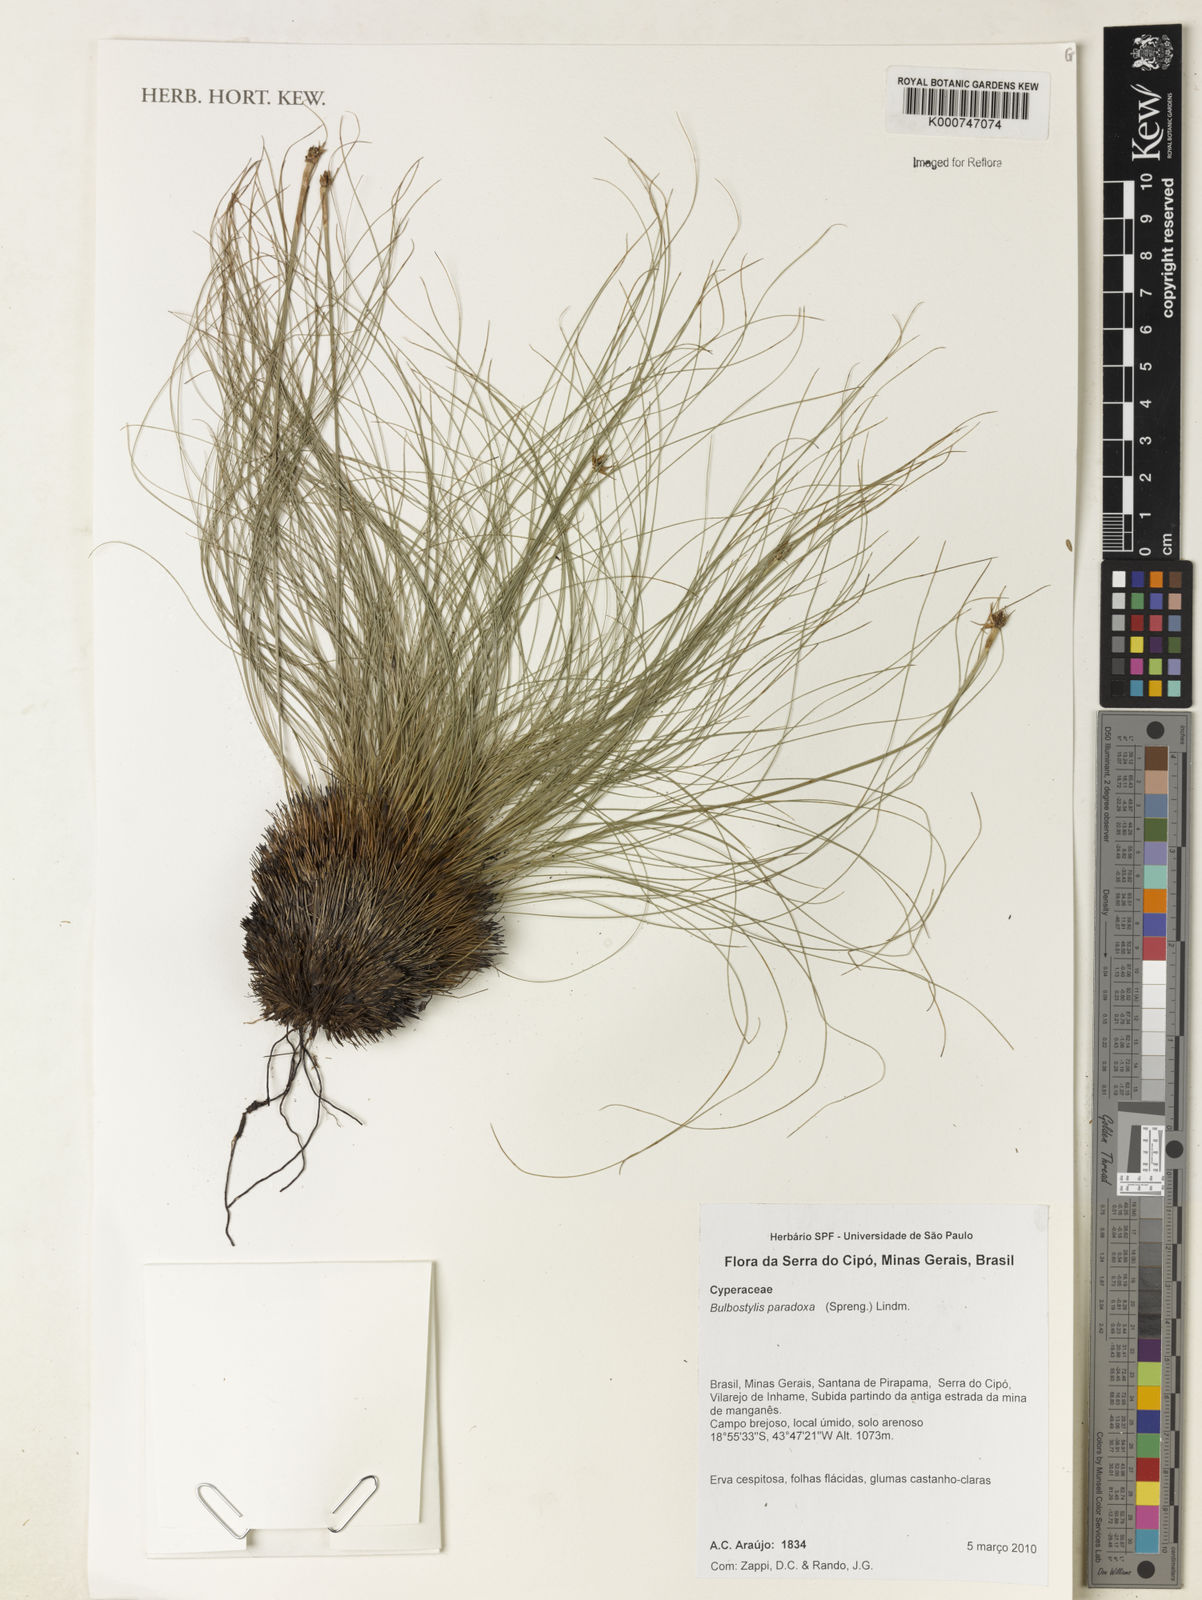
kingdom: Plantae
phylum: Tracheophyta
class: Liliopsida
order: Poales
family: Cyperaceae
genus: Bulbostylis
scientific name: Bulbostylis paradoxa
